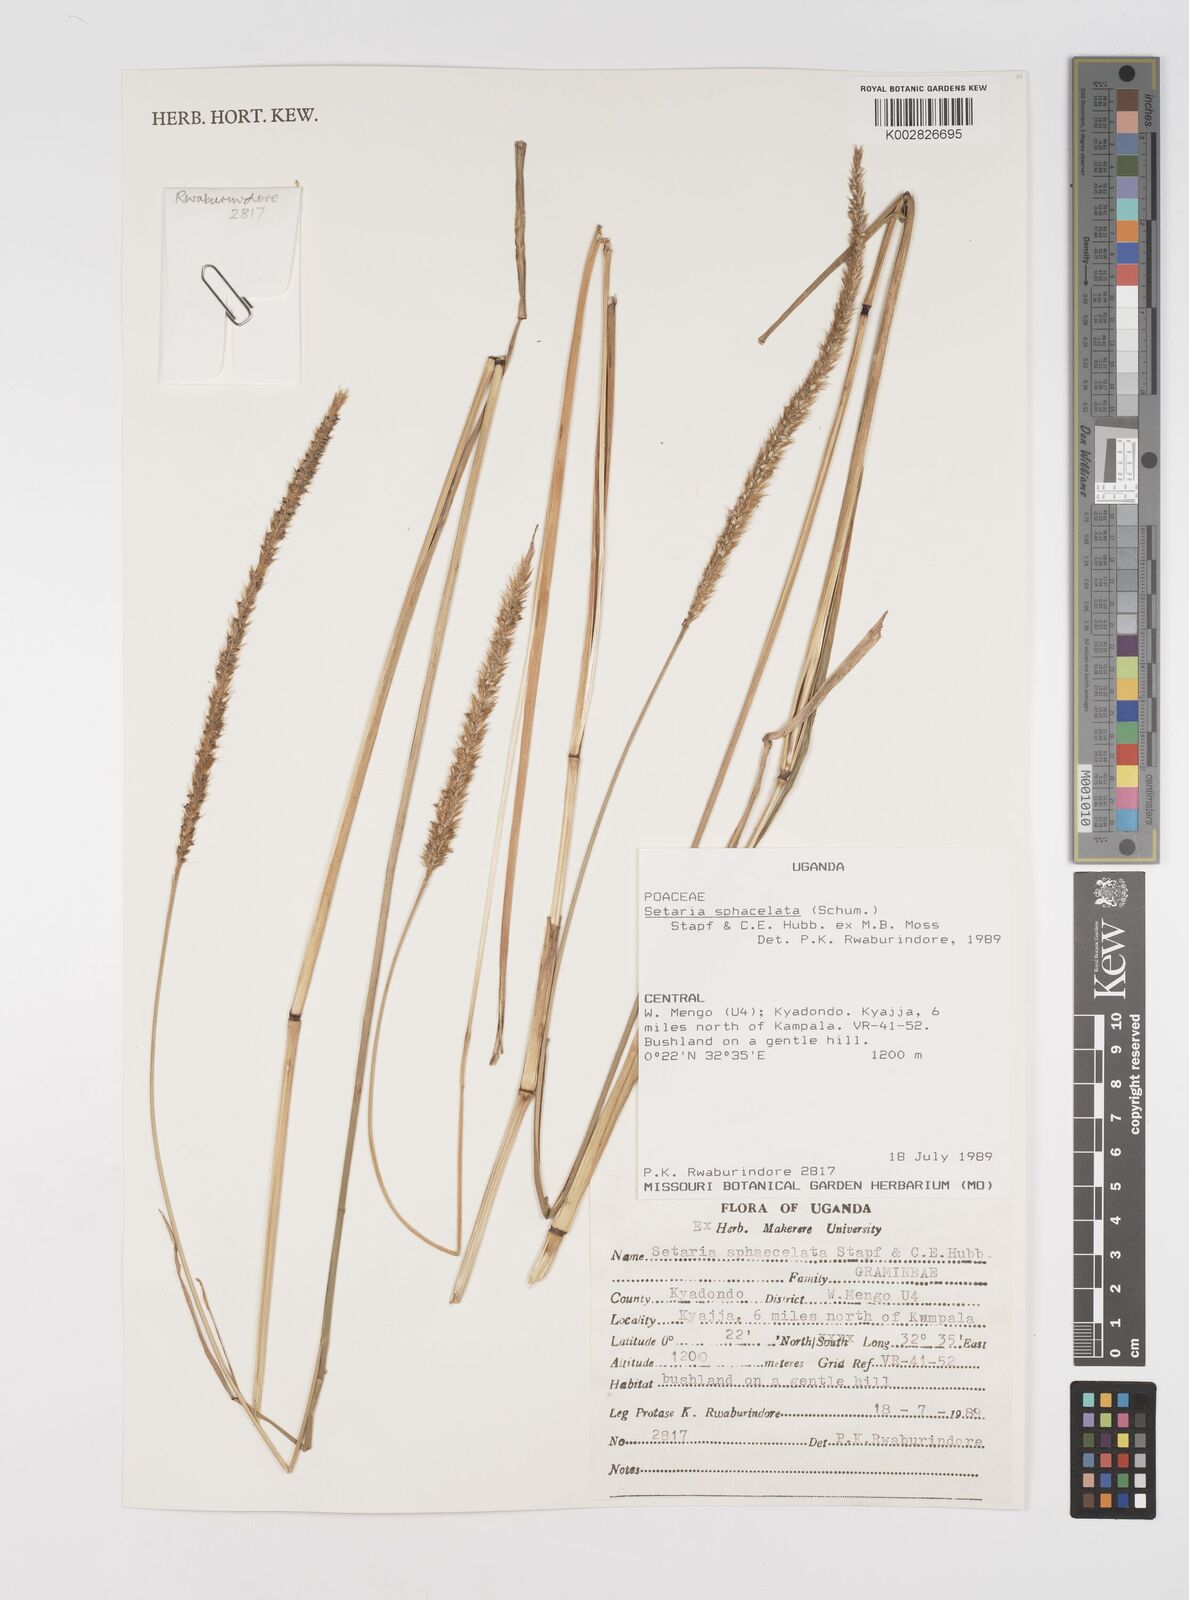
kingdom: Plantae
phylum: Tracheophyta
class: Liliopsida
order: Poales
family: Poaceae
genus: Setaria
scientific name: Setaria sphacelata
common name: African bristlegrass
